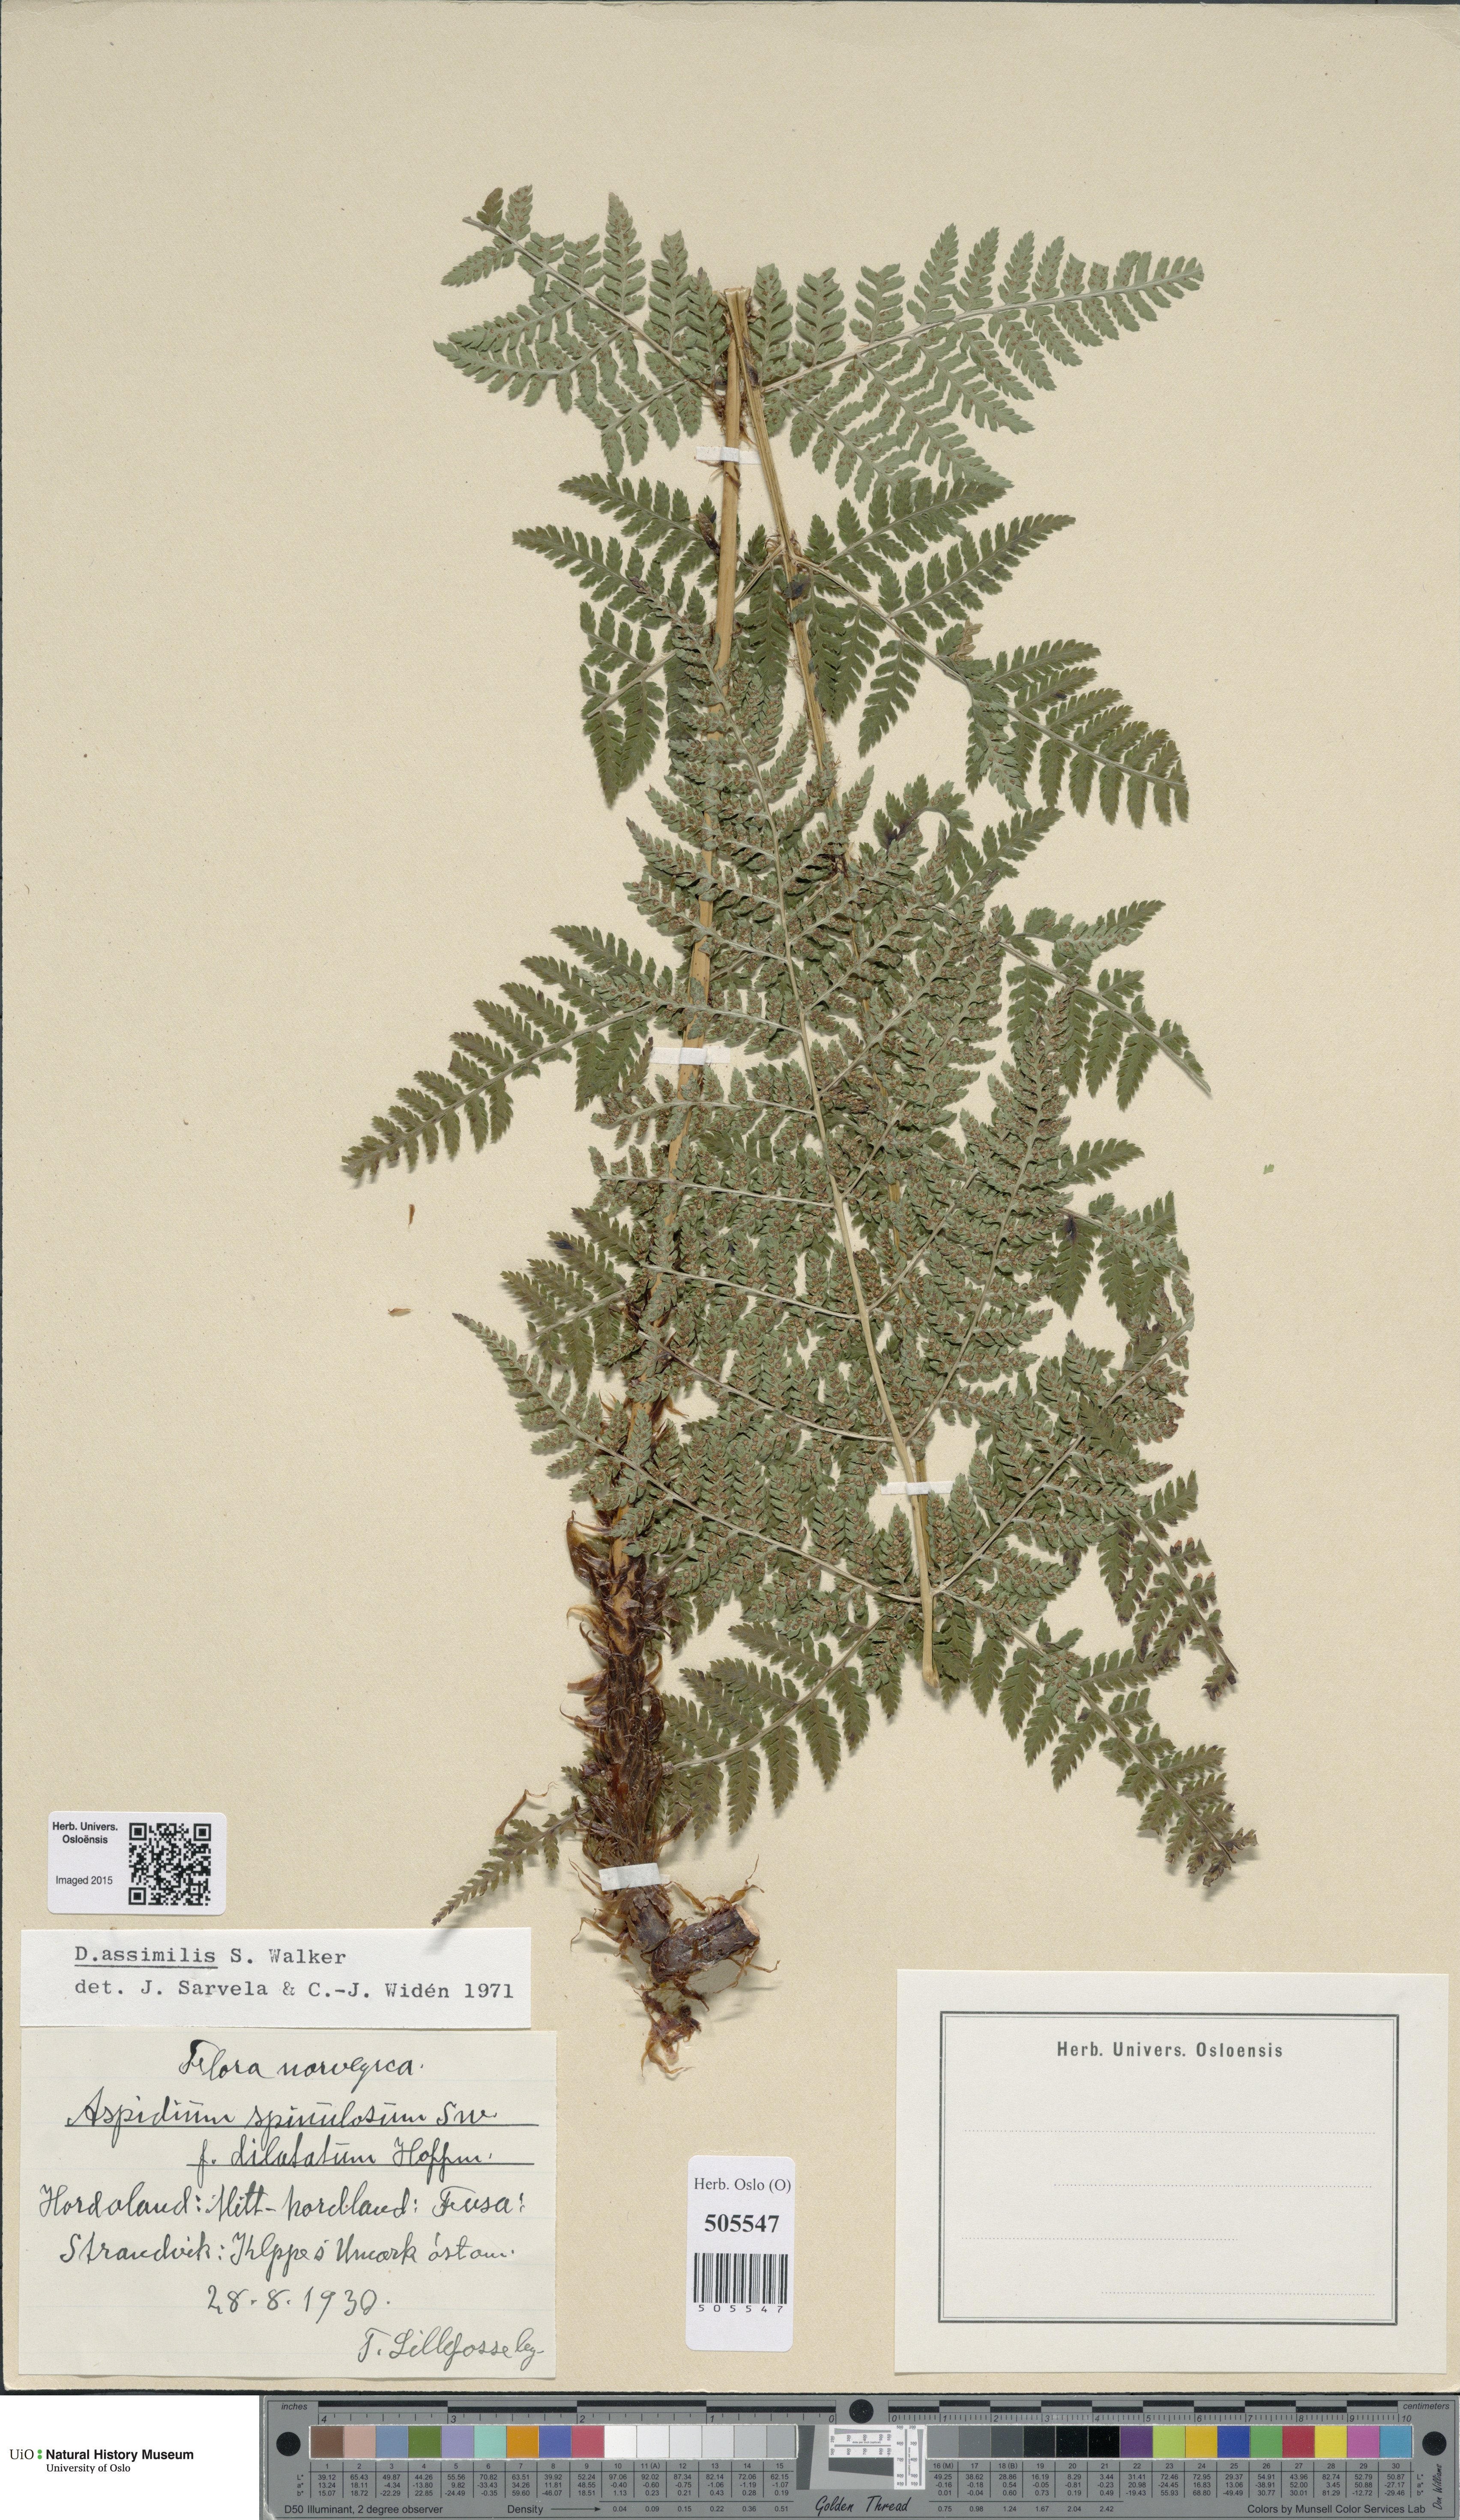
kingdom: Plantae
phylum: Tracheophyta
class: Polypodiopsida
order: Polypodiales
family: Dryopteridaceae
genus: Dryopteris
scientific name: Dryopteris expansa
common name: Northern buckler fern
